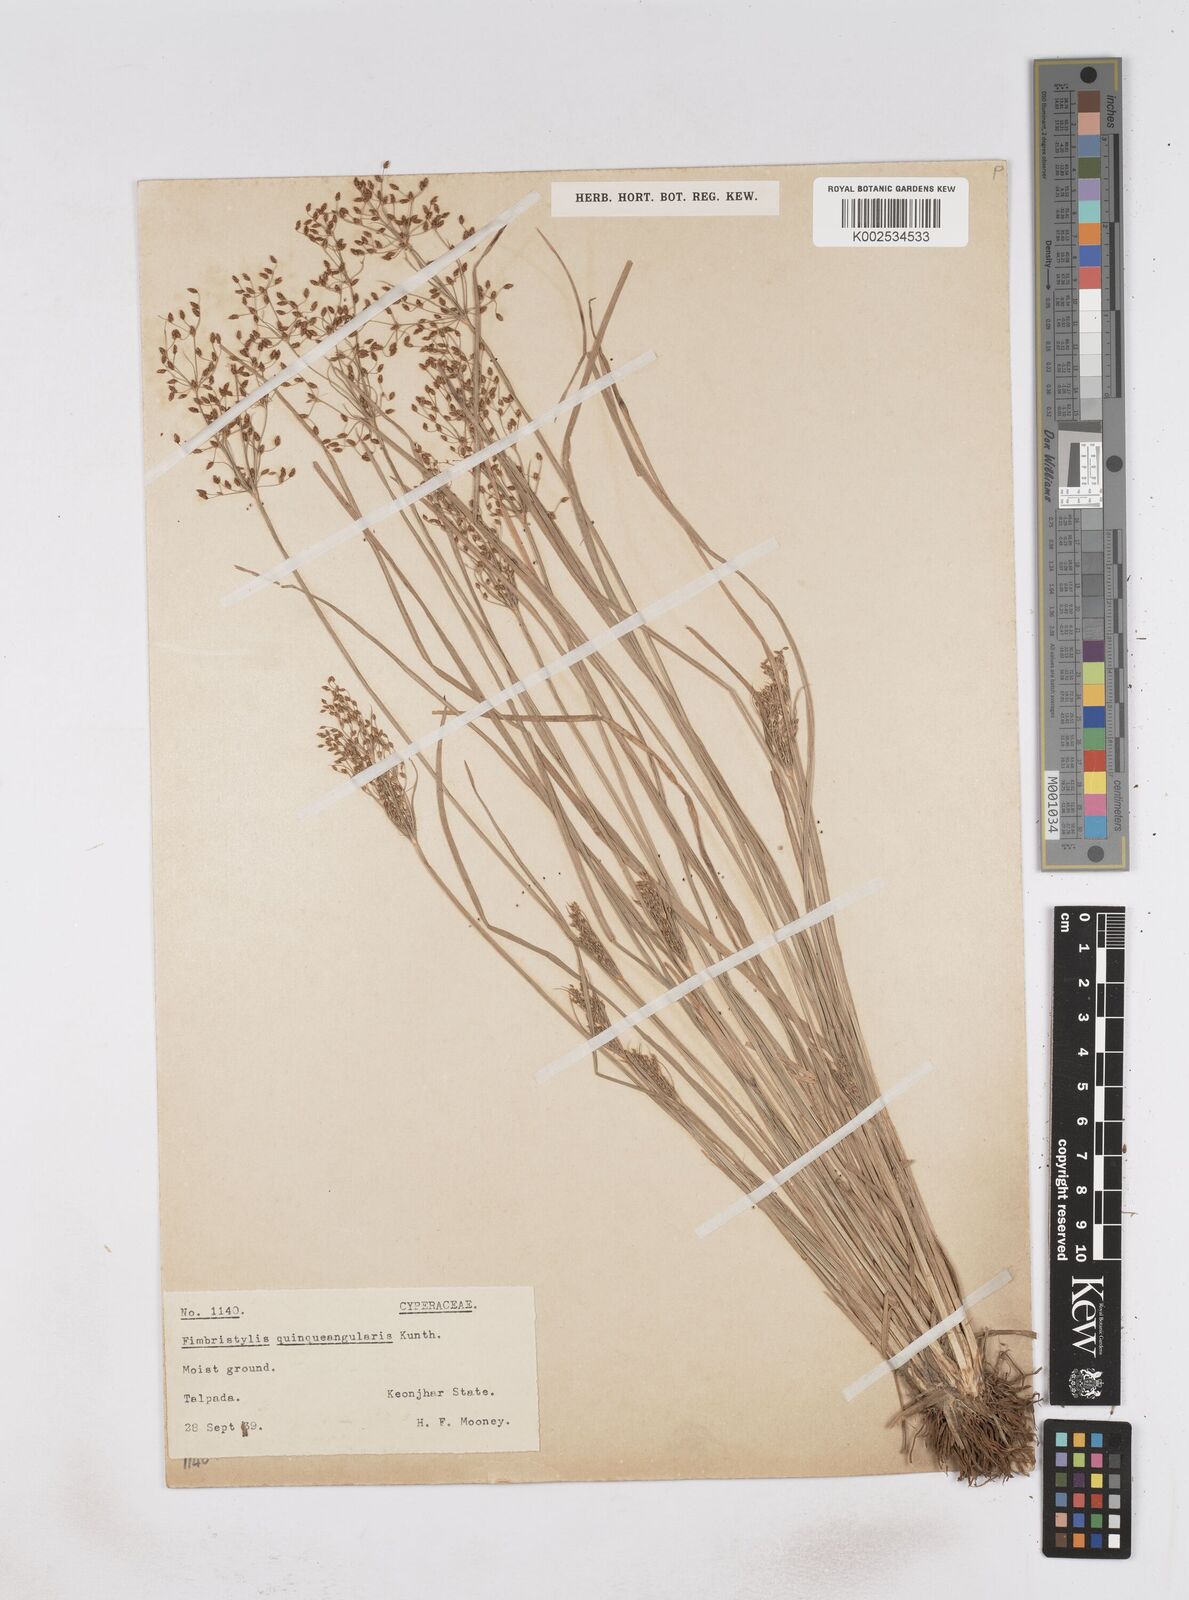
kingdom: Plantae
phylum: Tracheophyta
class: Liliopsida
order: Poales
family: Cyperaceae
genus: Fimbristylis
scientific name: Fimbristylis quinquangularis
